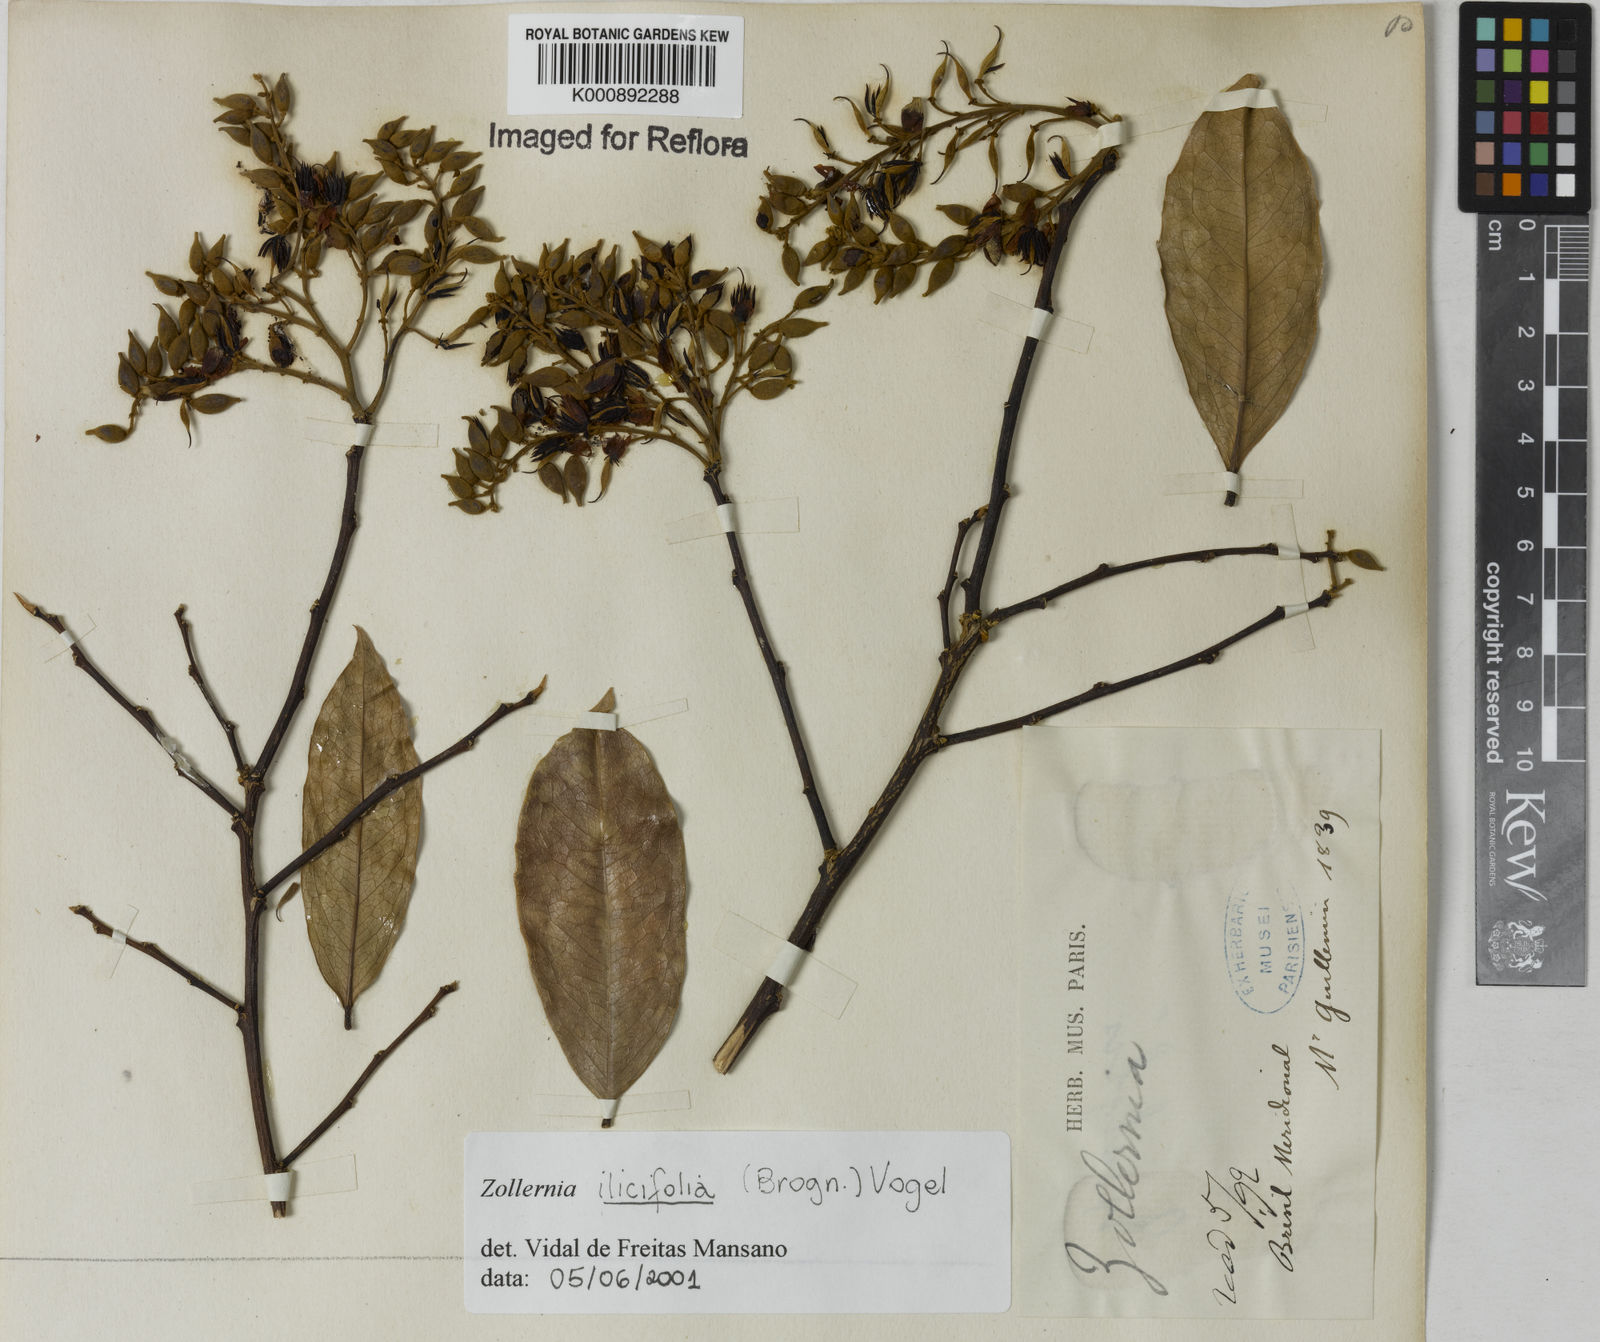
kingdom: Plantae
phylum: Tracheophyta
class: Magnoliopsida
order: Fabales
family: Fabaceae
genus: Zollernia
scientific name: Zollernia ilicifolia
